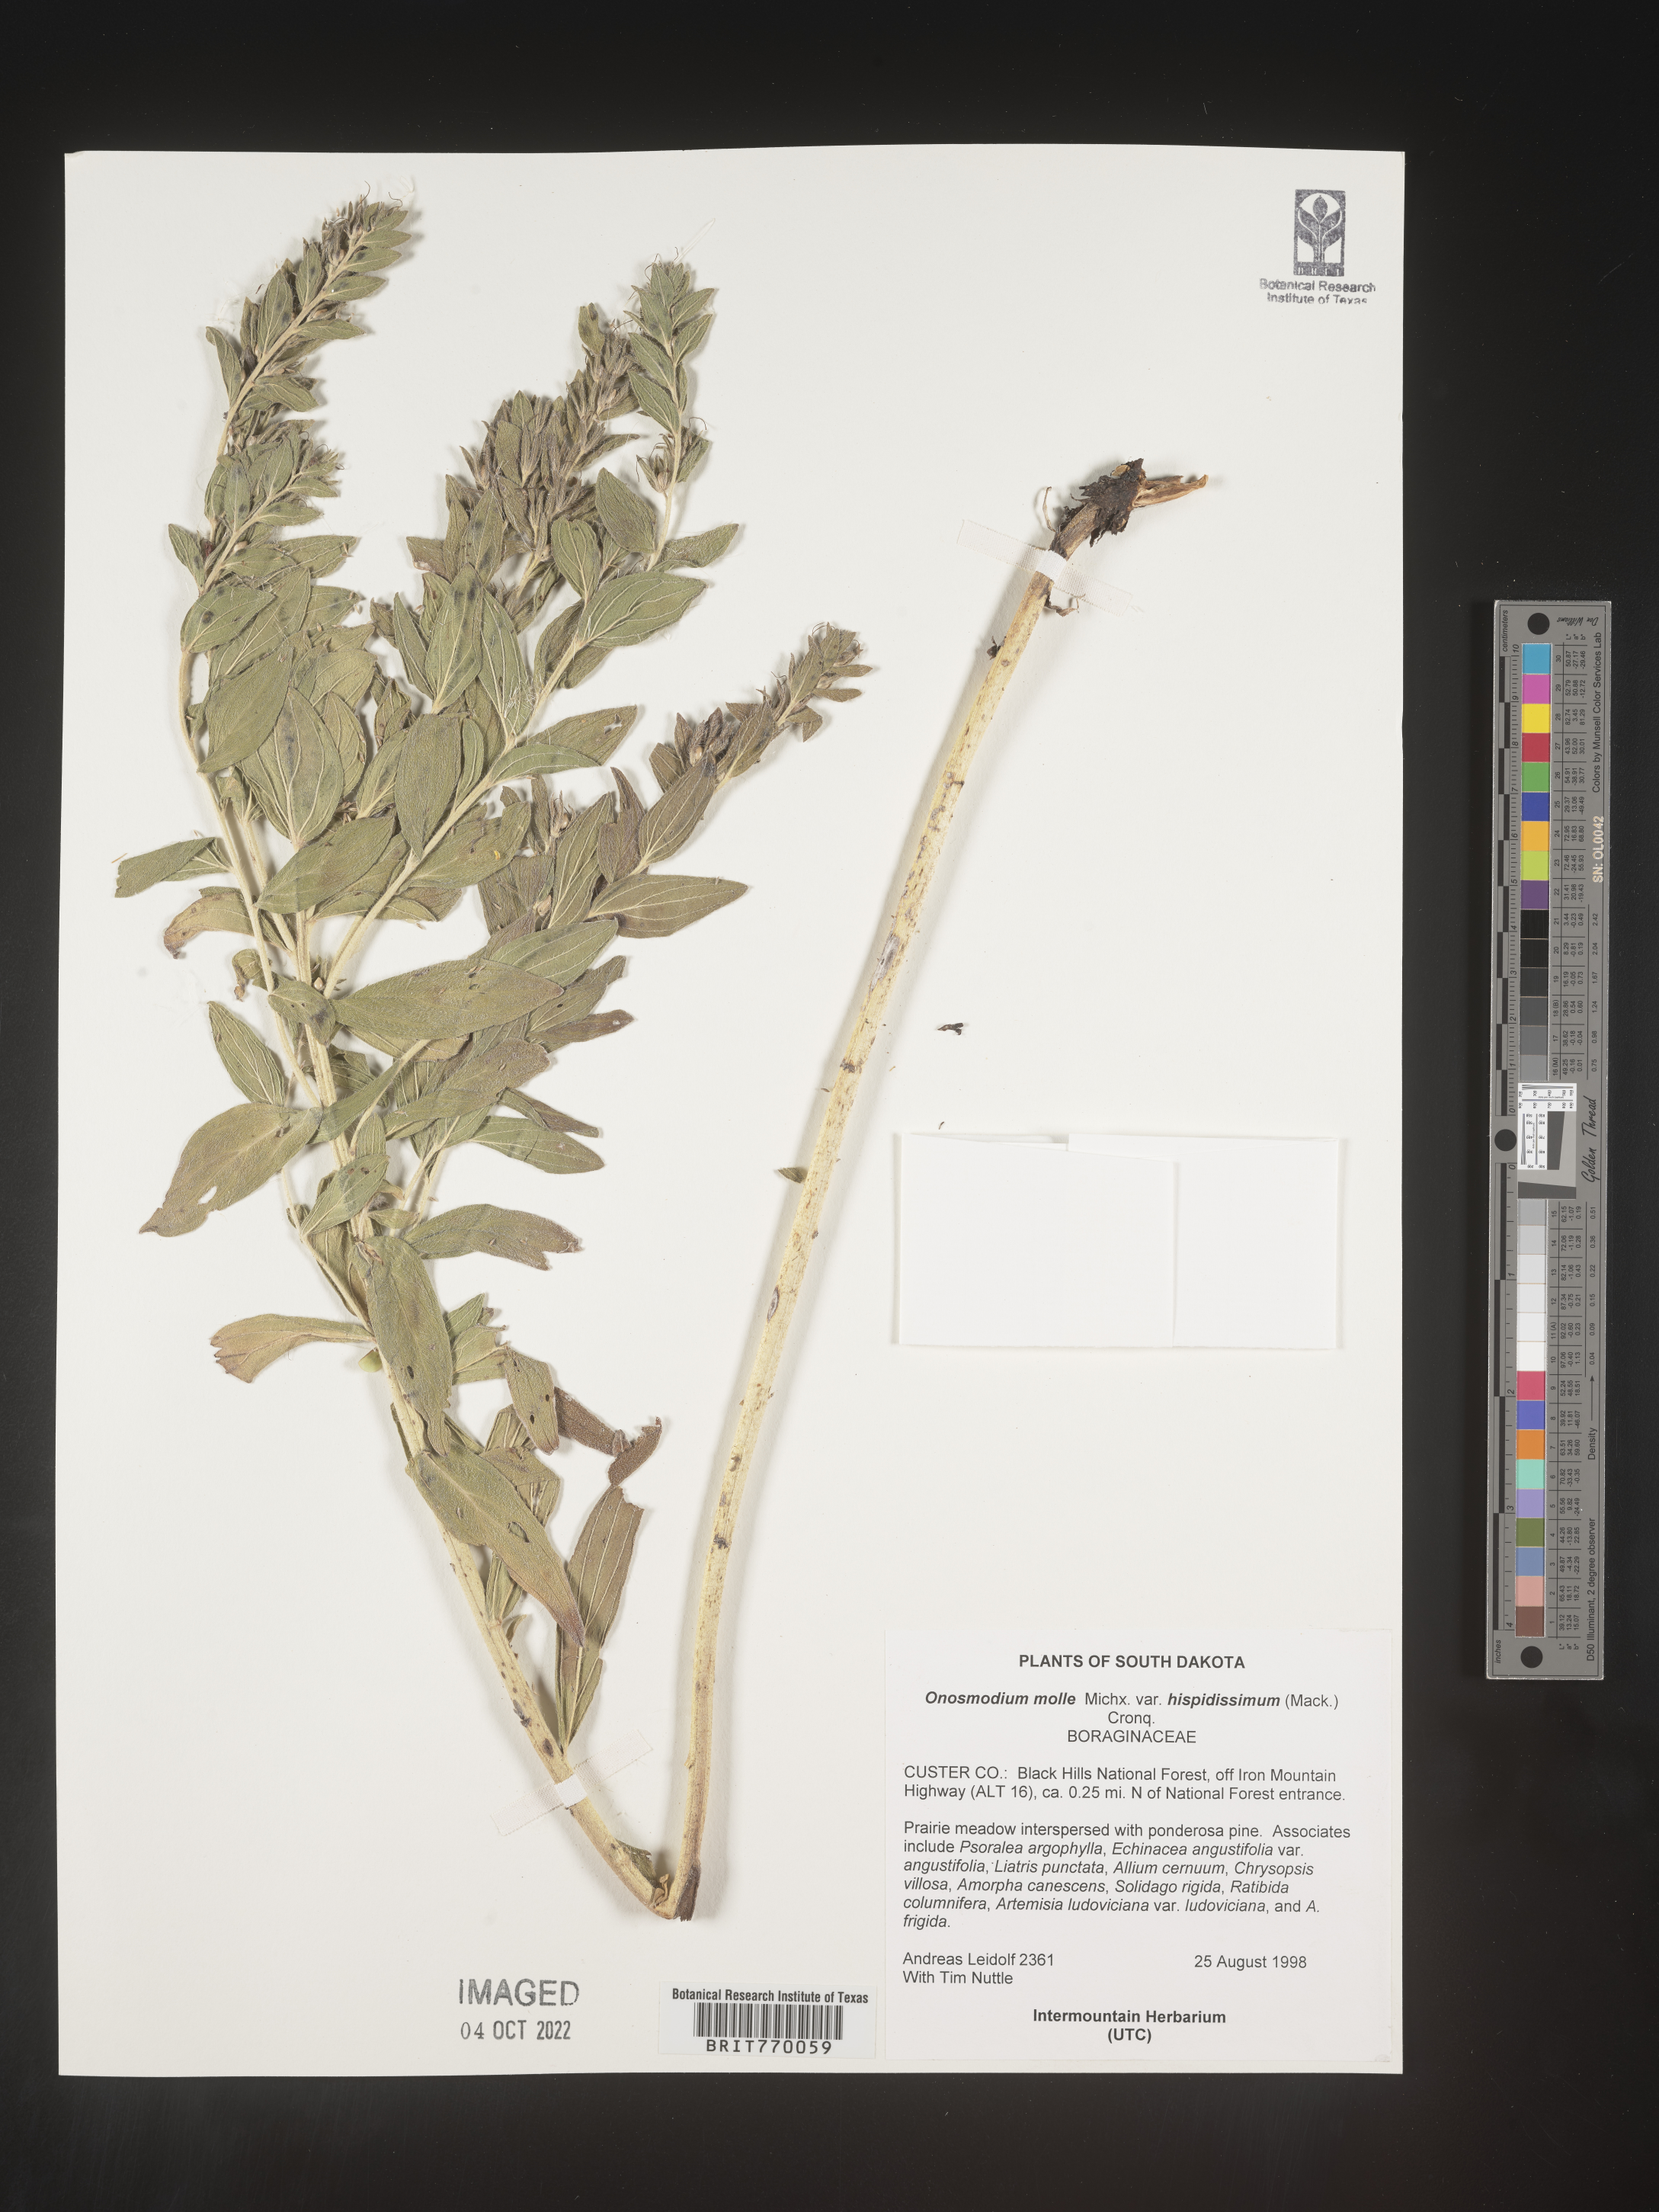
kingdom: Plantae
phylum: Tracheophyta
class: Magnoliopsida
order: Boraginales
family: Boraginaceae
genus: Lithospermum
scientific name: Lithospermum parviflorum
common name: Hairy false gromwell
